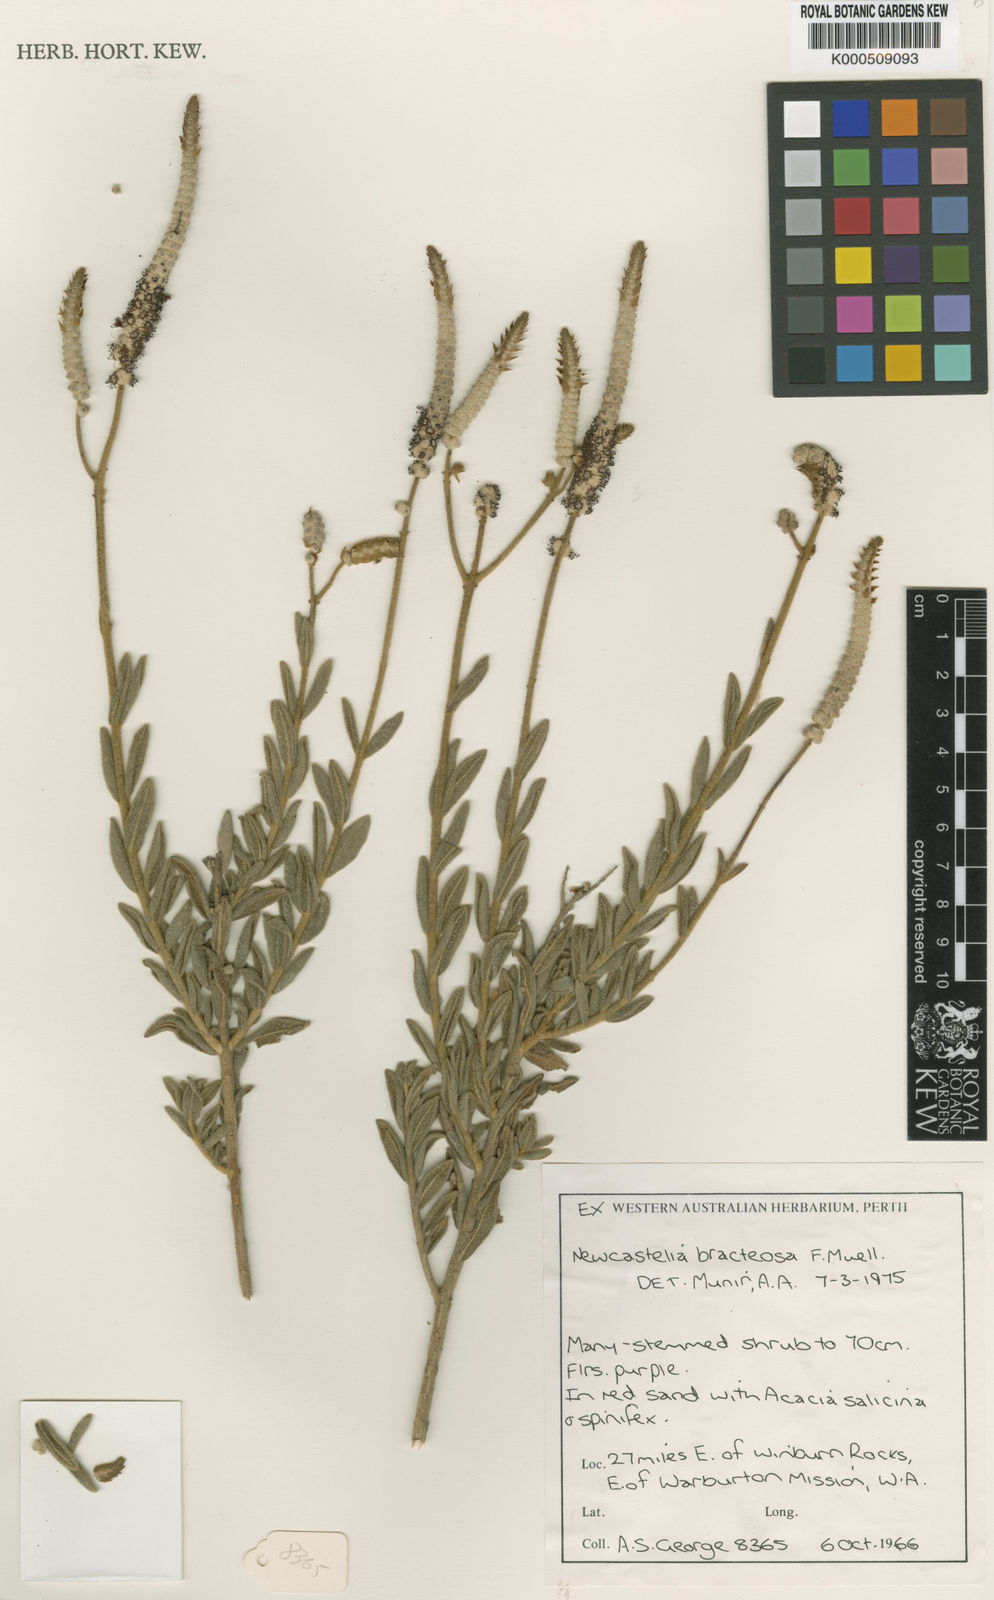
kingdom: Plantae
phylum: Tracheophyta
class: Magnoliopsida
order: Lamiales
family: Lamiaceae
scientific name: Lamiaceae
